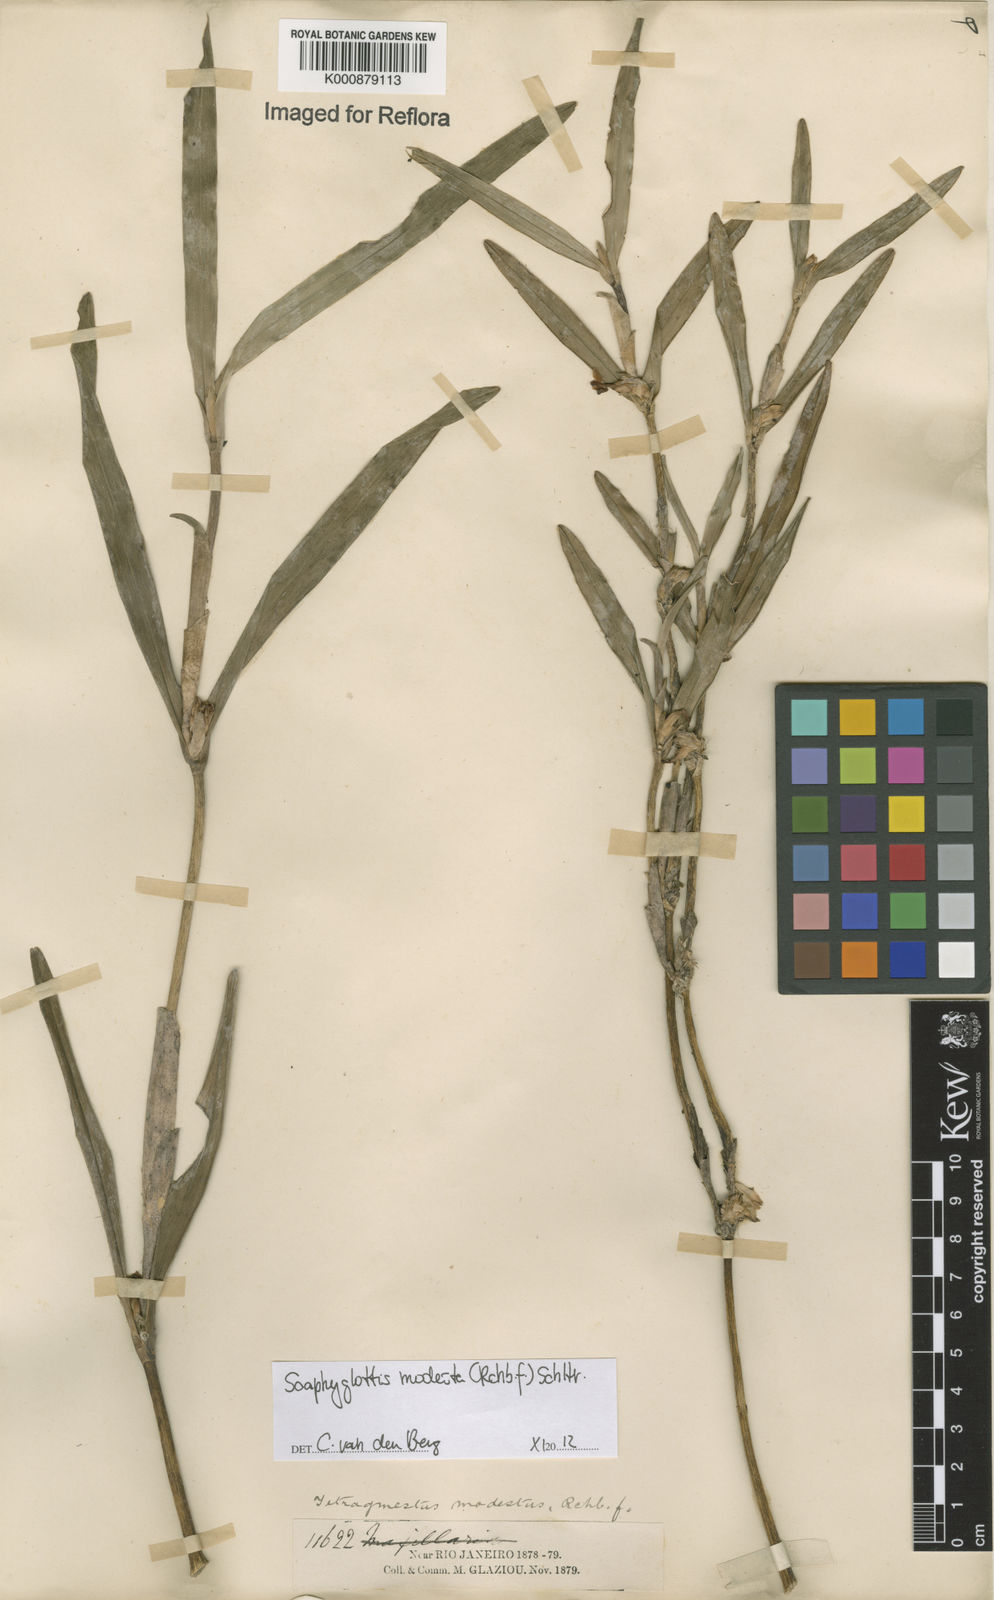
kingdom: Plantae
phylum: Tracheophyta
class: Liliopsida
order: Asparagales
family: Orchidaceae
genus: Scaphyglottis
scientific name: Scaphyglottis modesta
